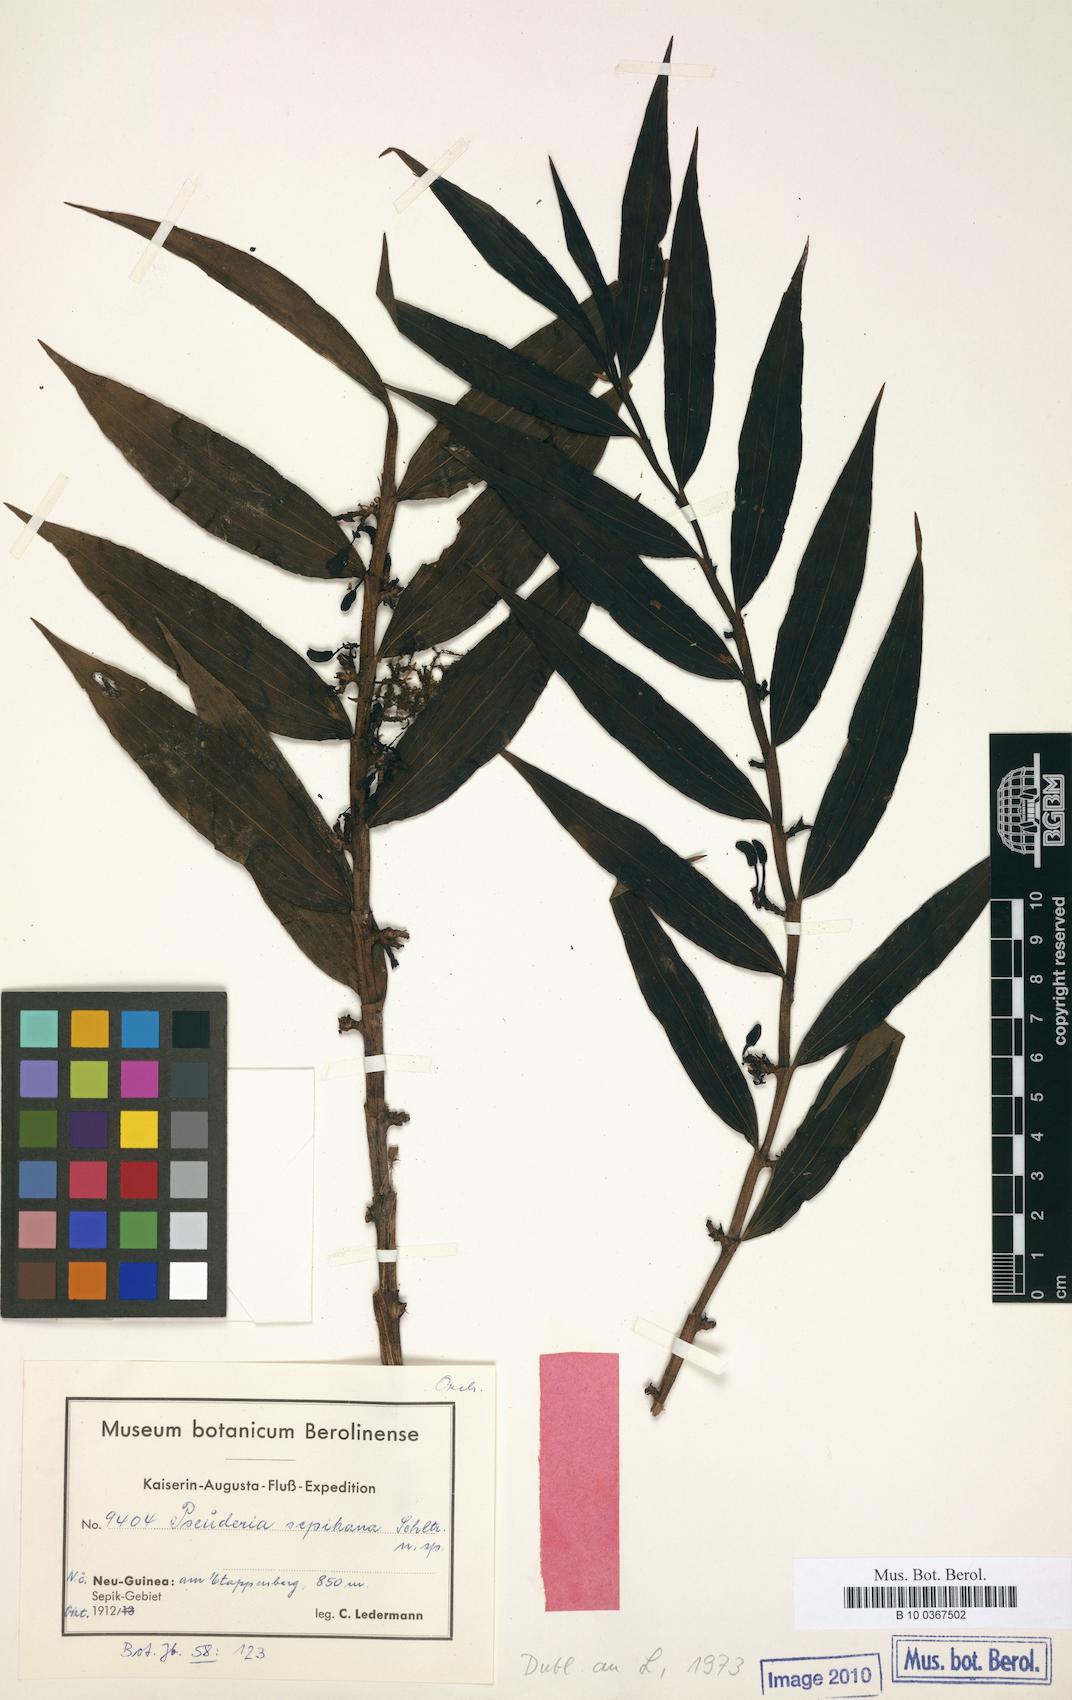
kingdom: Plantae
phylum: Tracheophyta
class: Liliopsida
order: Asparagales
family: Orchidaceae
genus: Pseuderia
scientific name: Pseuderia sepikana
